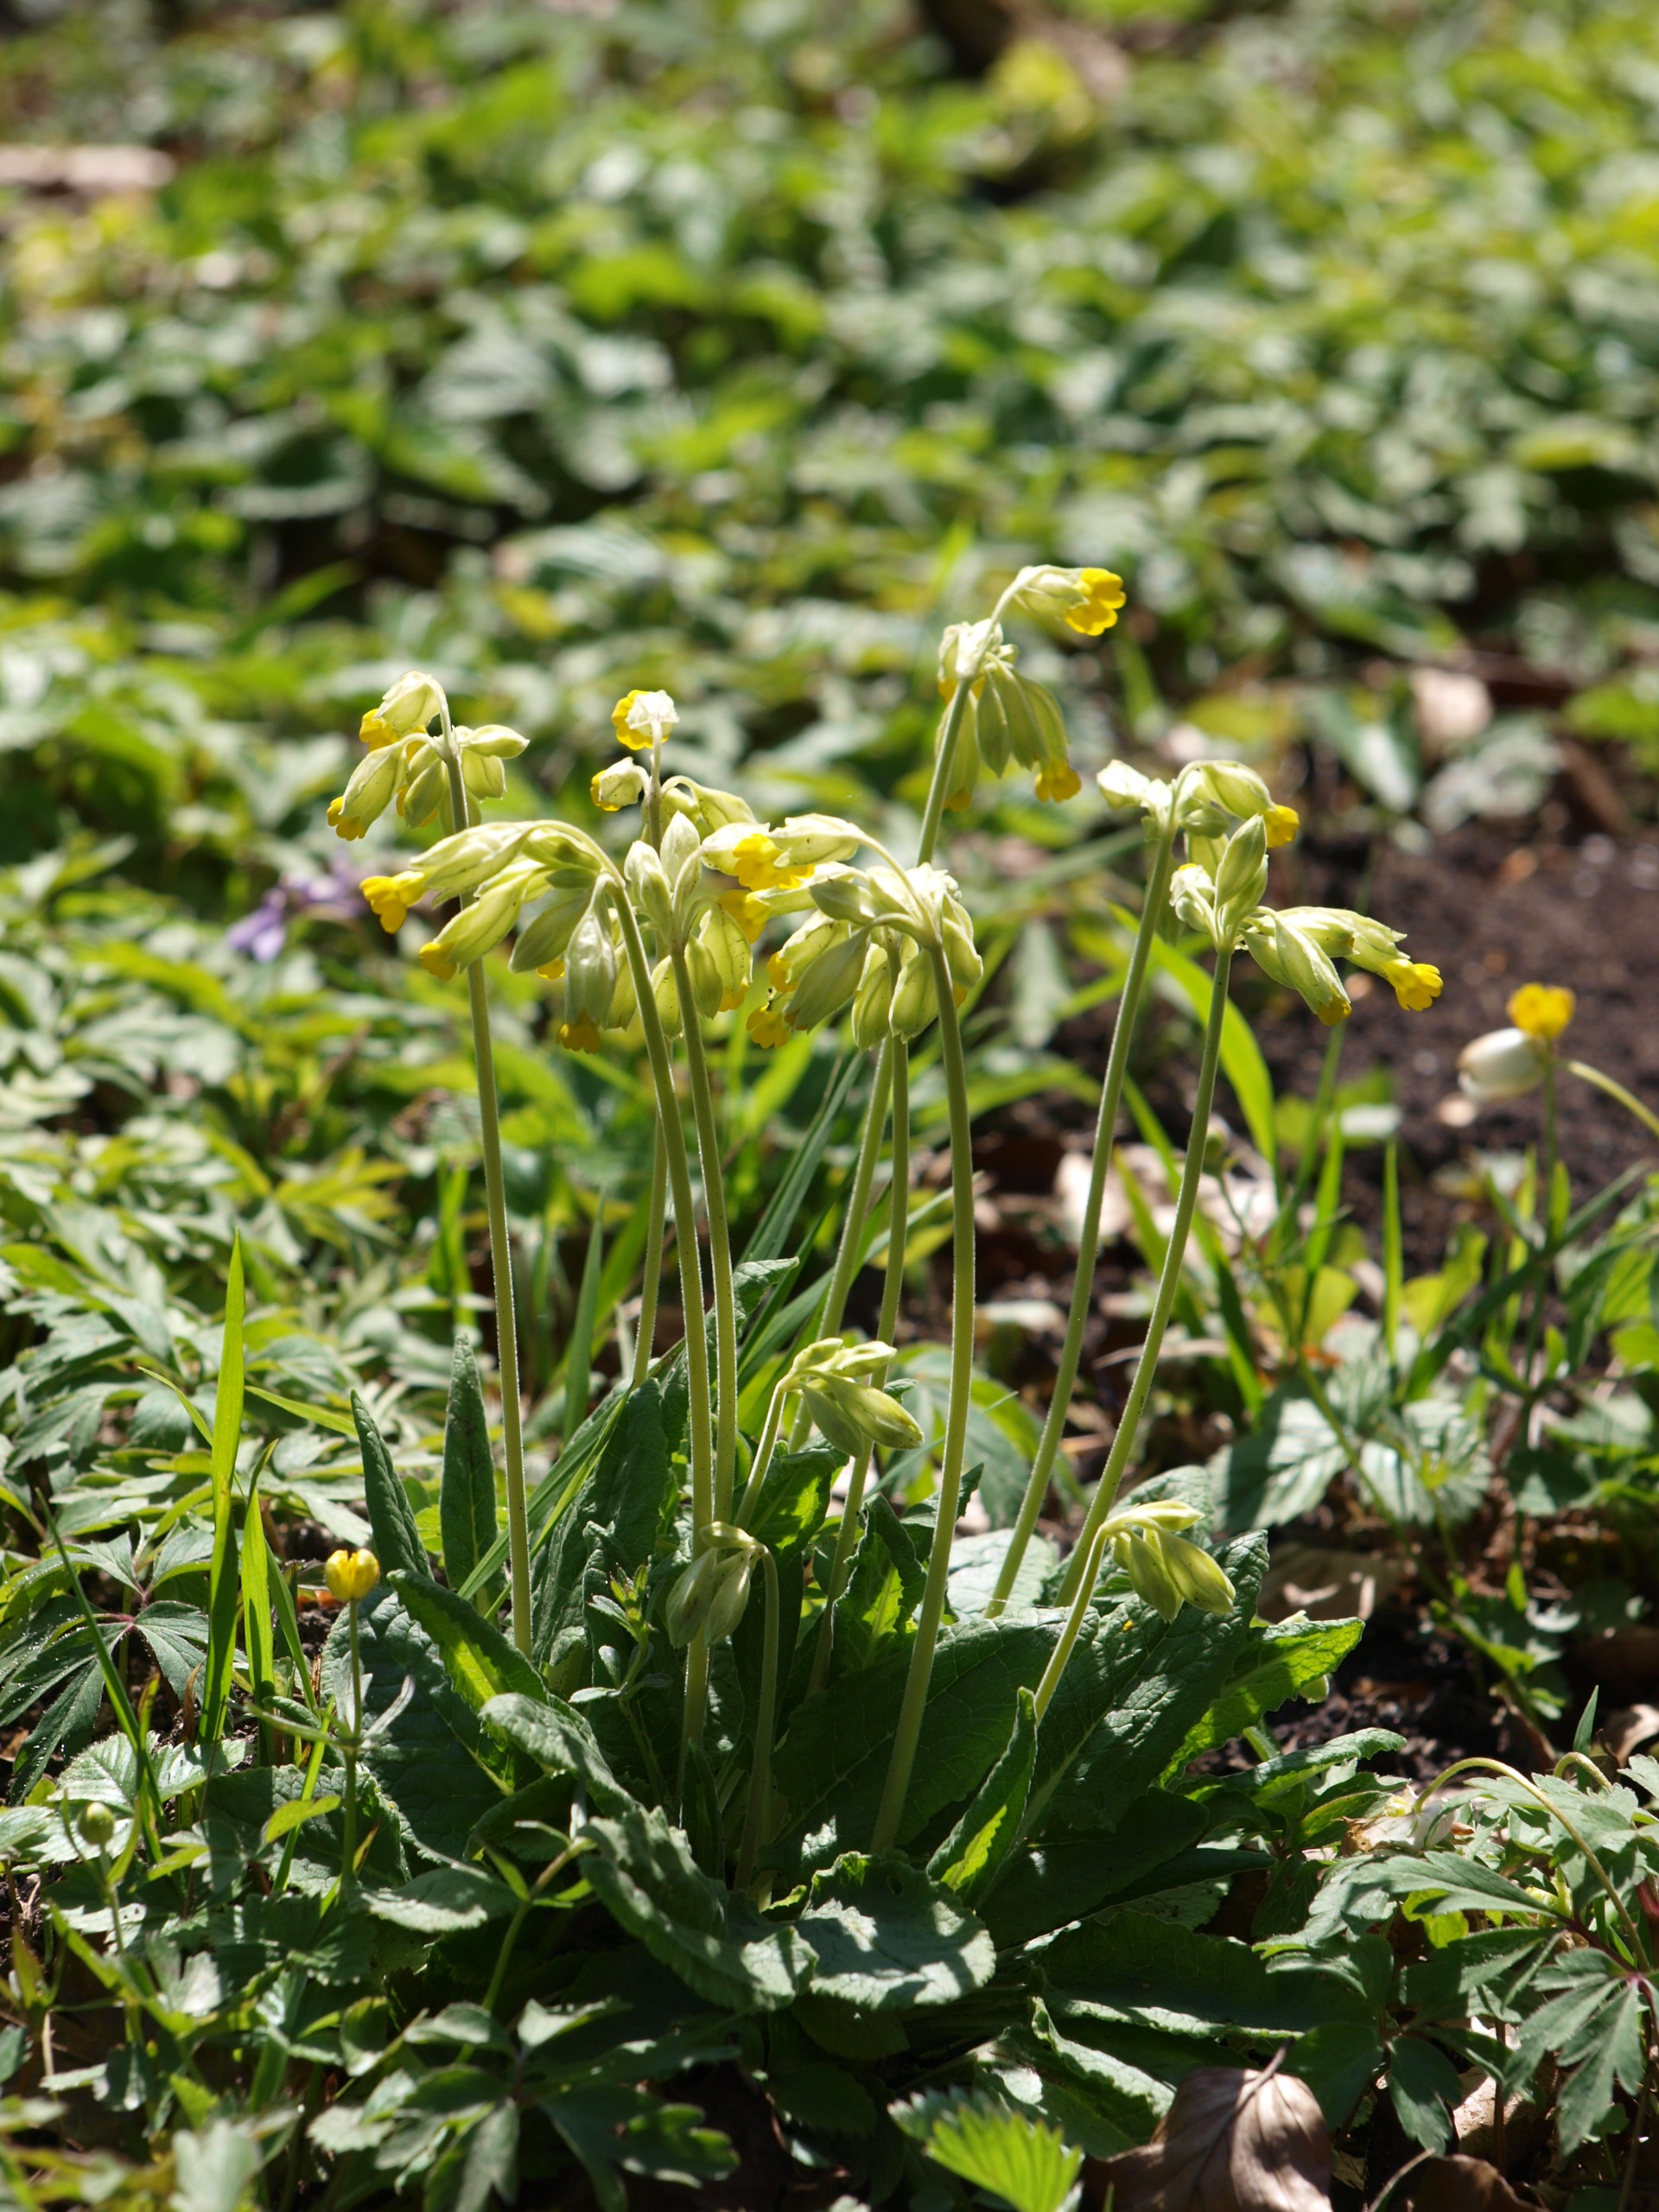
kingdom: Plantae
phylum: Tracheophyta
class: Magnoliopsida
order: Ericales
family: Primulaceae
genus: Primula
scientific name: Primula veris
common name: Hulkravet kodriver
